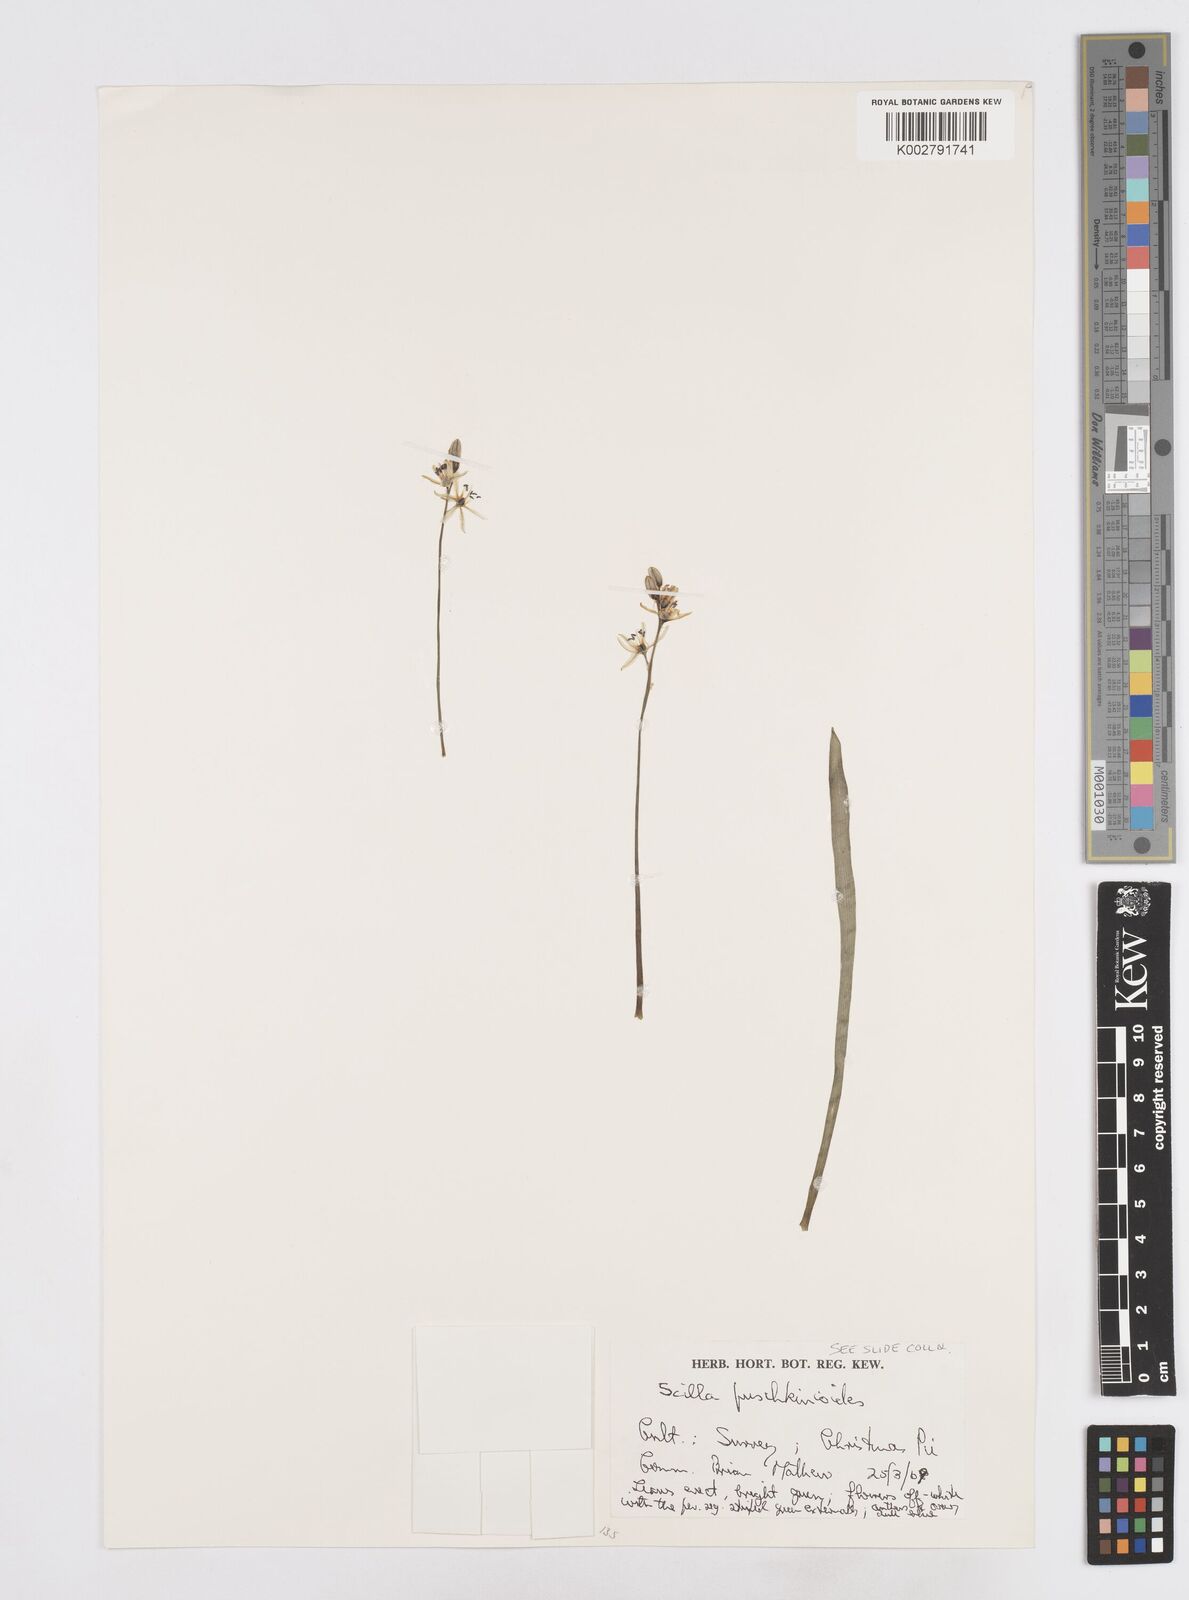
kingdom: Plantae
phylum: Tracheophyta
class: Liliopsida
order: Asparagales
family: Asparagaceae
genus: Fessia
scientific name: Fessia puschkinioides
